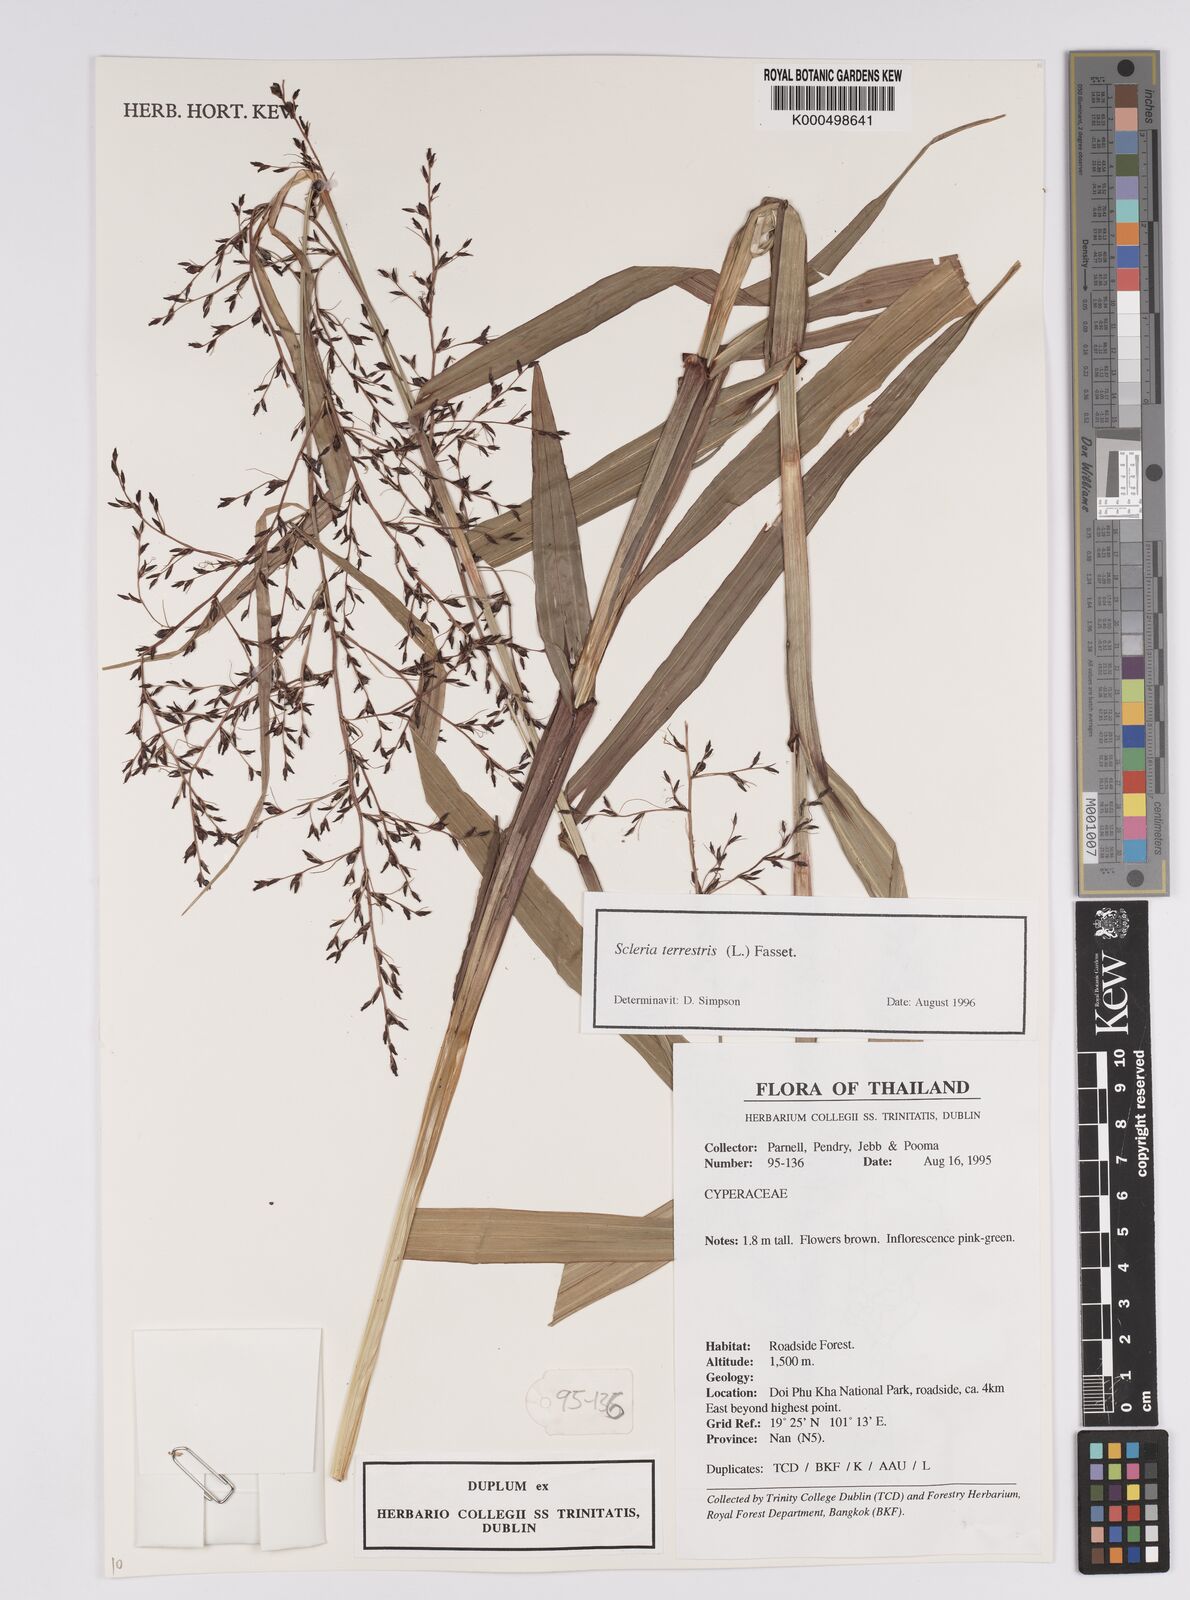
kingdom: Plantae
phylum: Tracheophyta
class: Liliopsida
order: Poales
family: Cyperaceae
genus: Scleria
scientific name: Scleria terrestris
